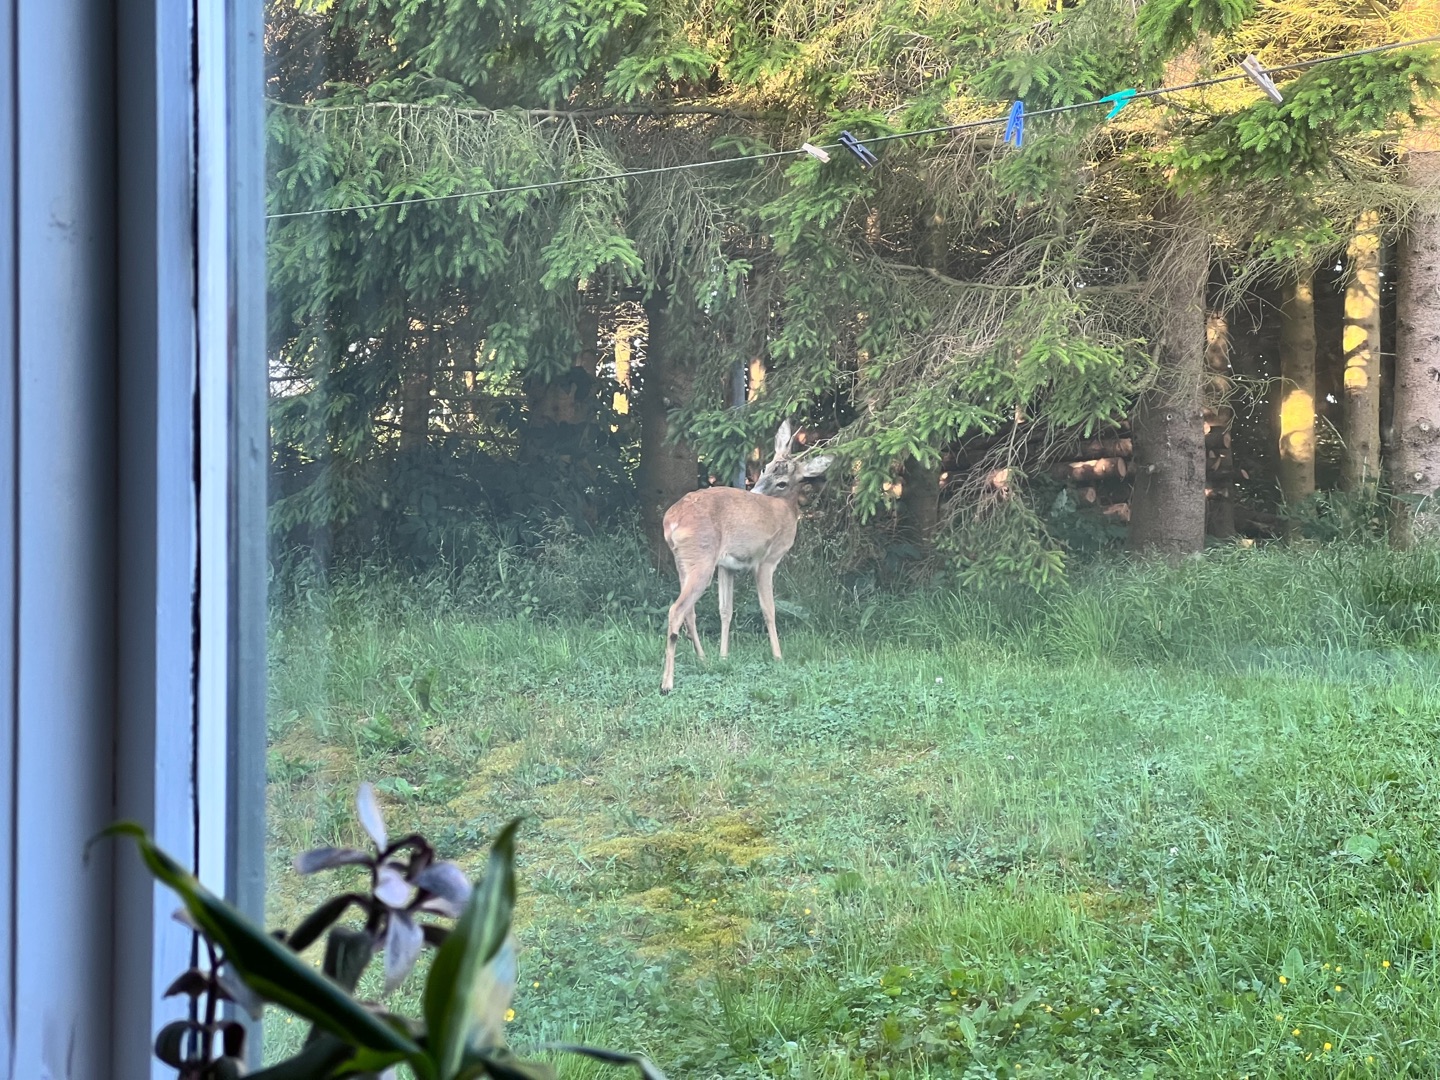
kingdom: Animalia
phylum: Chordata
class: Mammalia
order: Artiodactyla
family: Cervidae
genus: Capreolus
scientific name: Capreolus capreolus
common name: Rådyr
